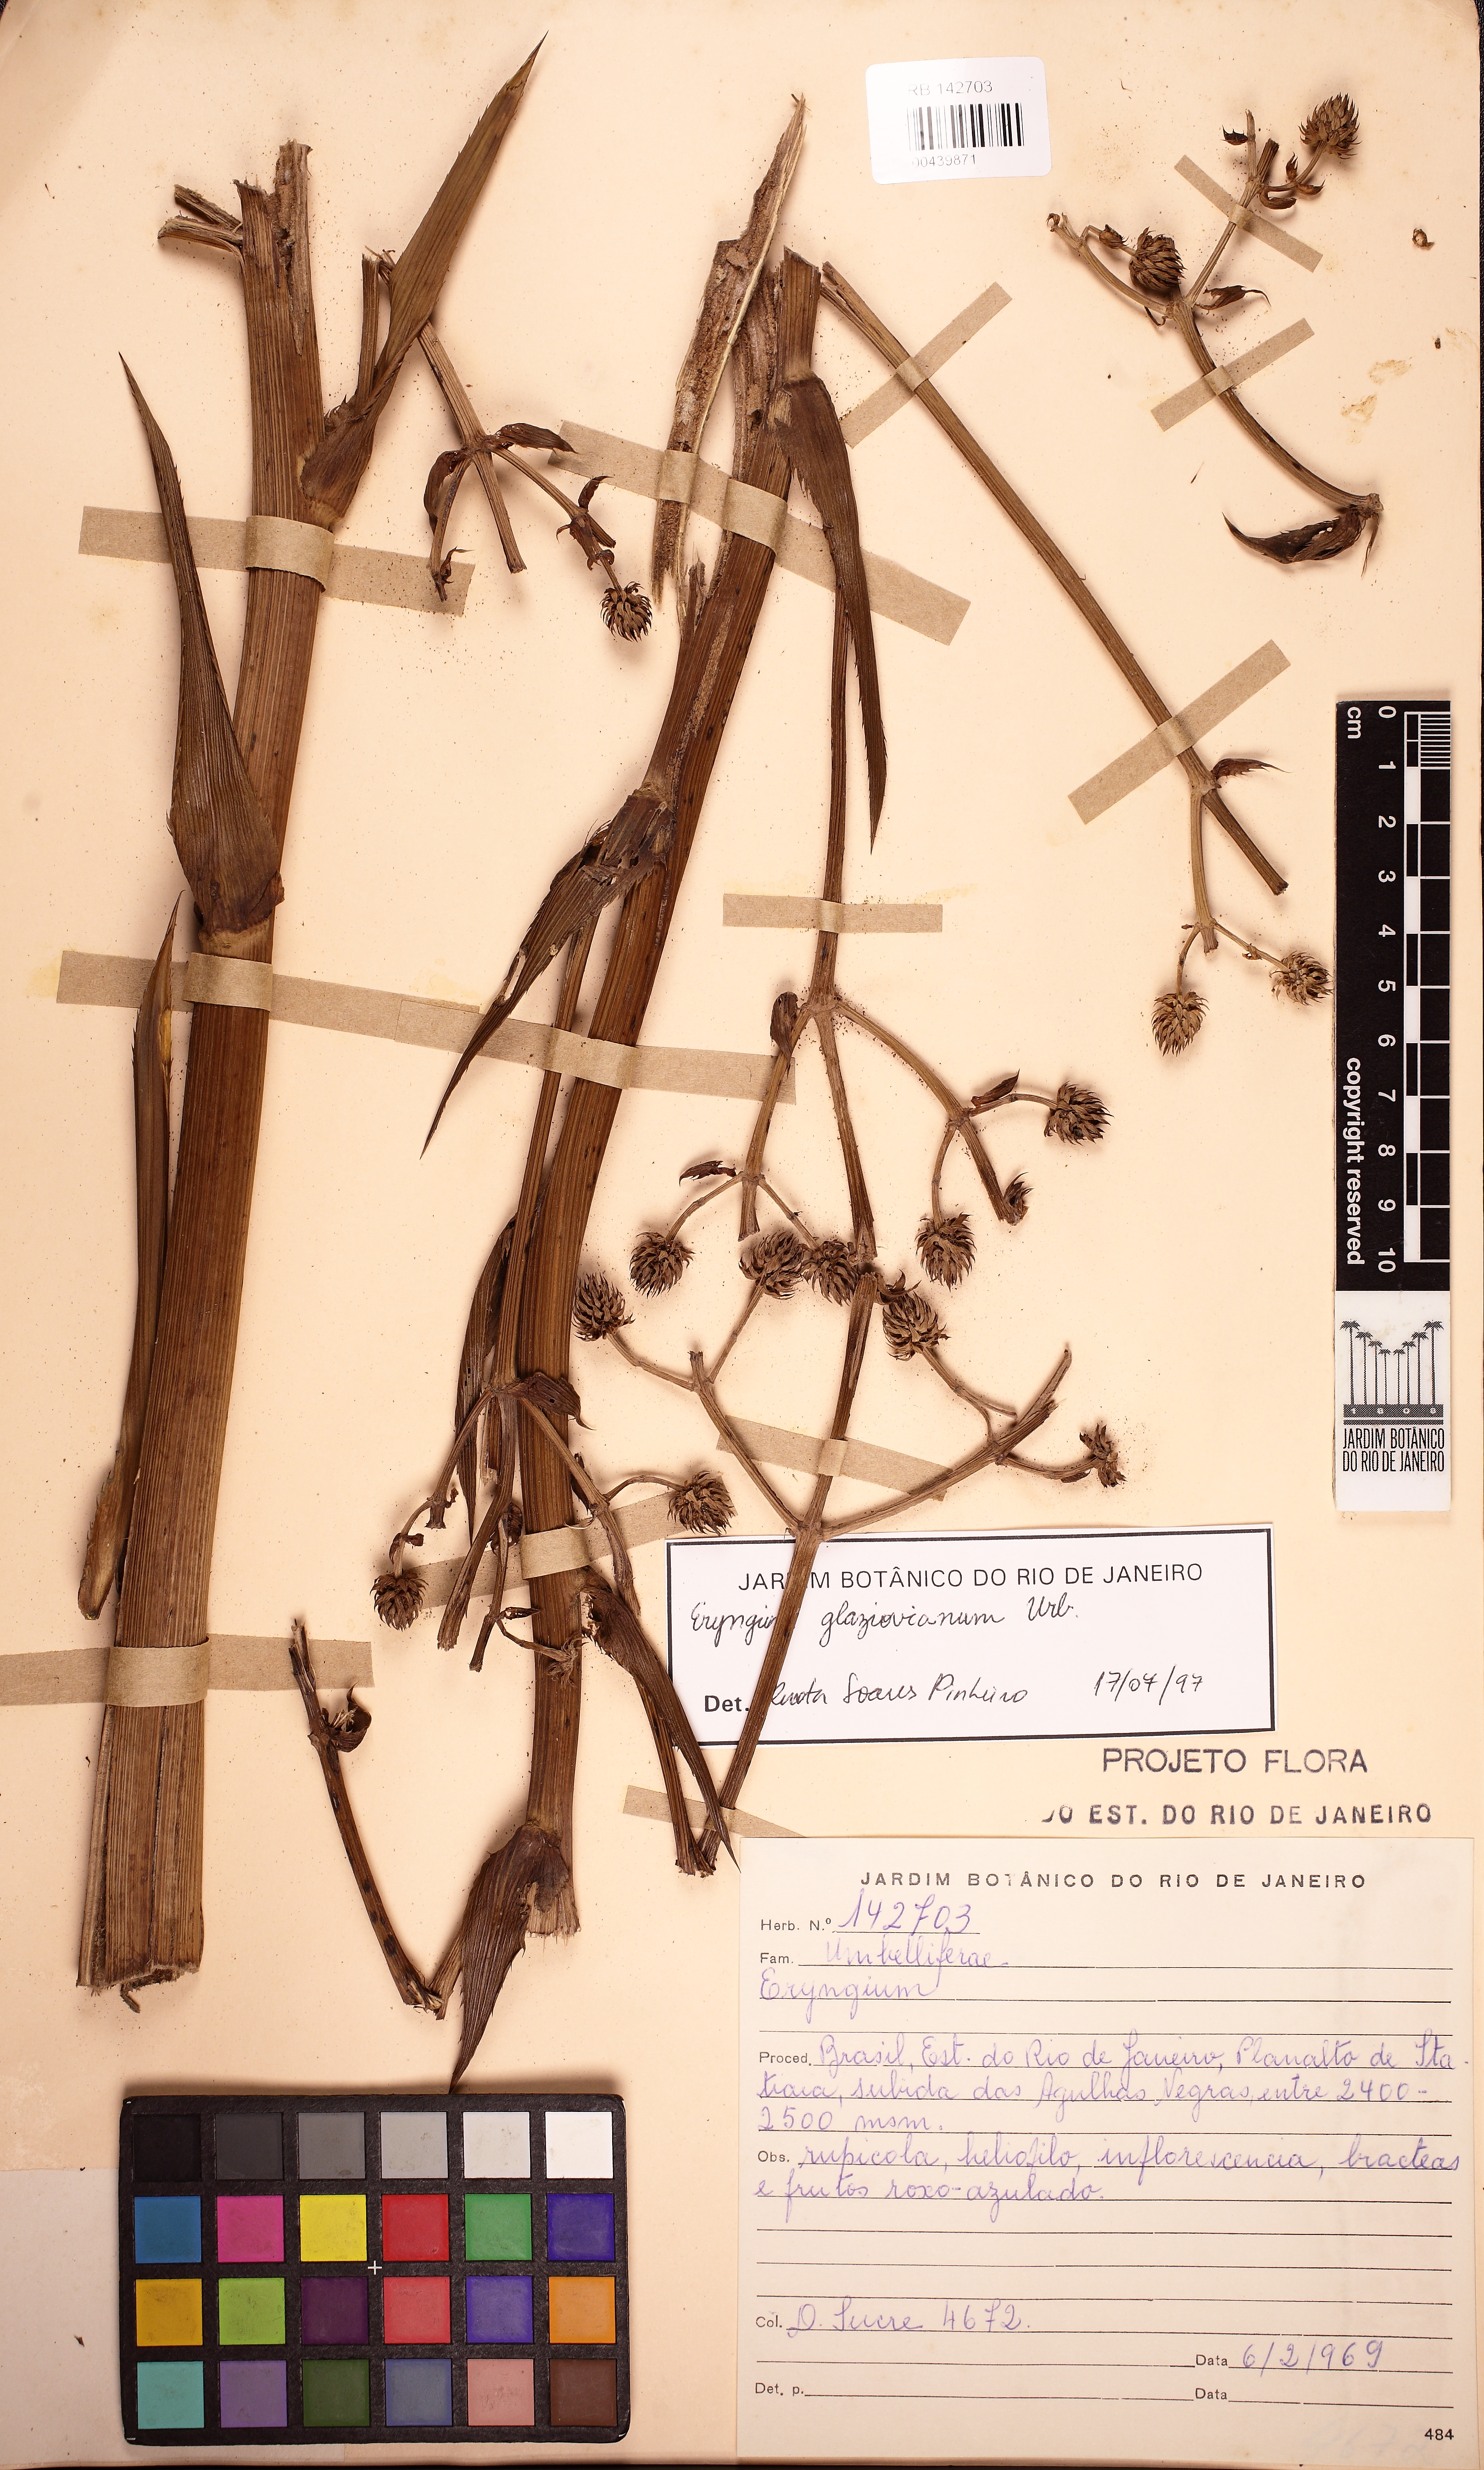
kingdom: Plantae
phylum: Tracheophyta
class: Magnoliopsida
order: Apiales
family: Apiaceae
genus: Eryngium
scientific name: Eryngium glaziovianum
